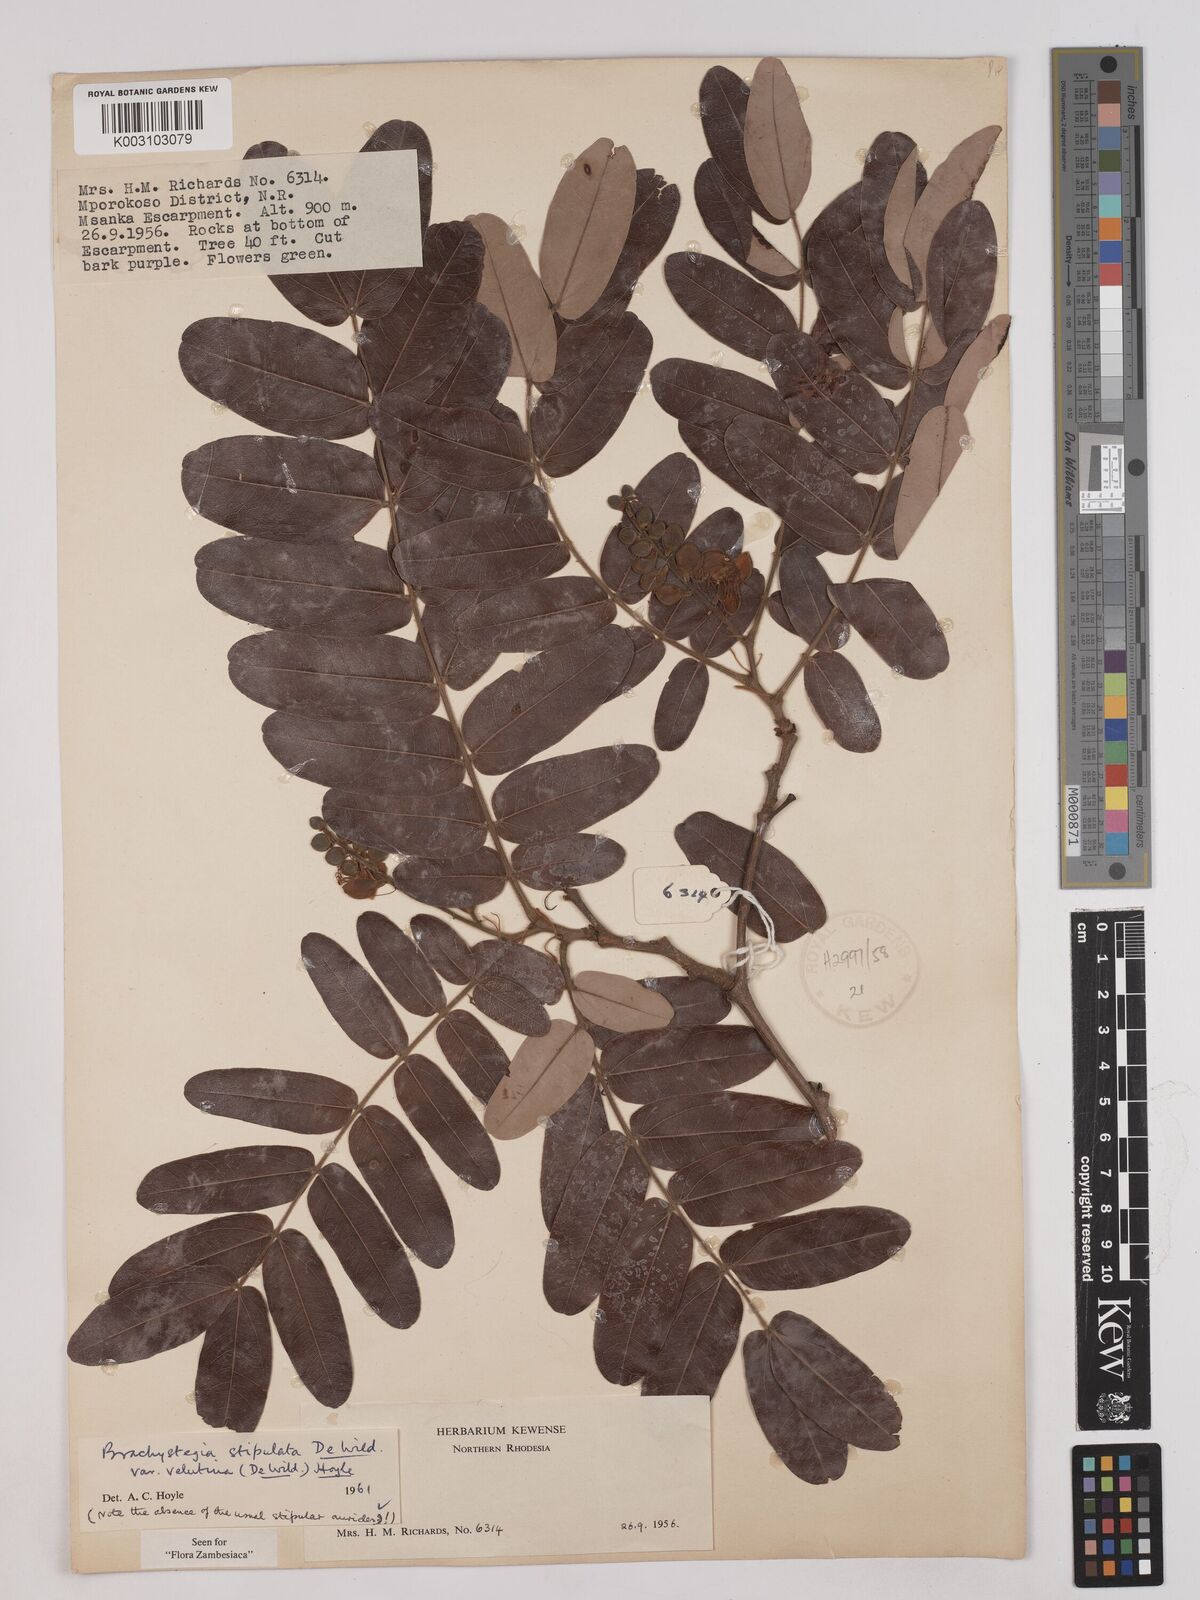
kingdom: Plantae
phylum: Tracheophyta
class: Magnoliopsida
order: Fabales
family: Fabaceae
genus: Brachystegia
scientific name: Brachystegia stipulata
